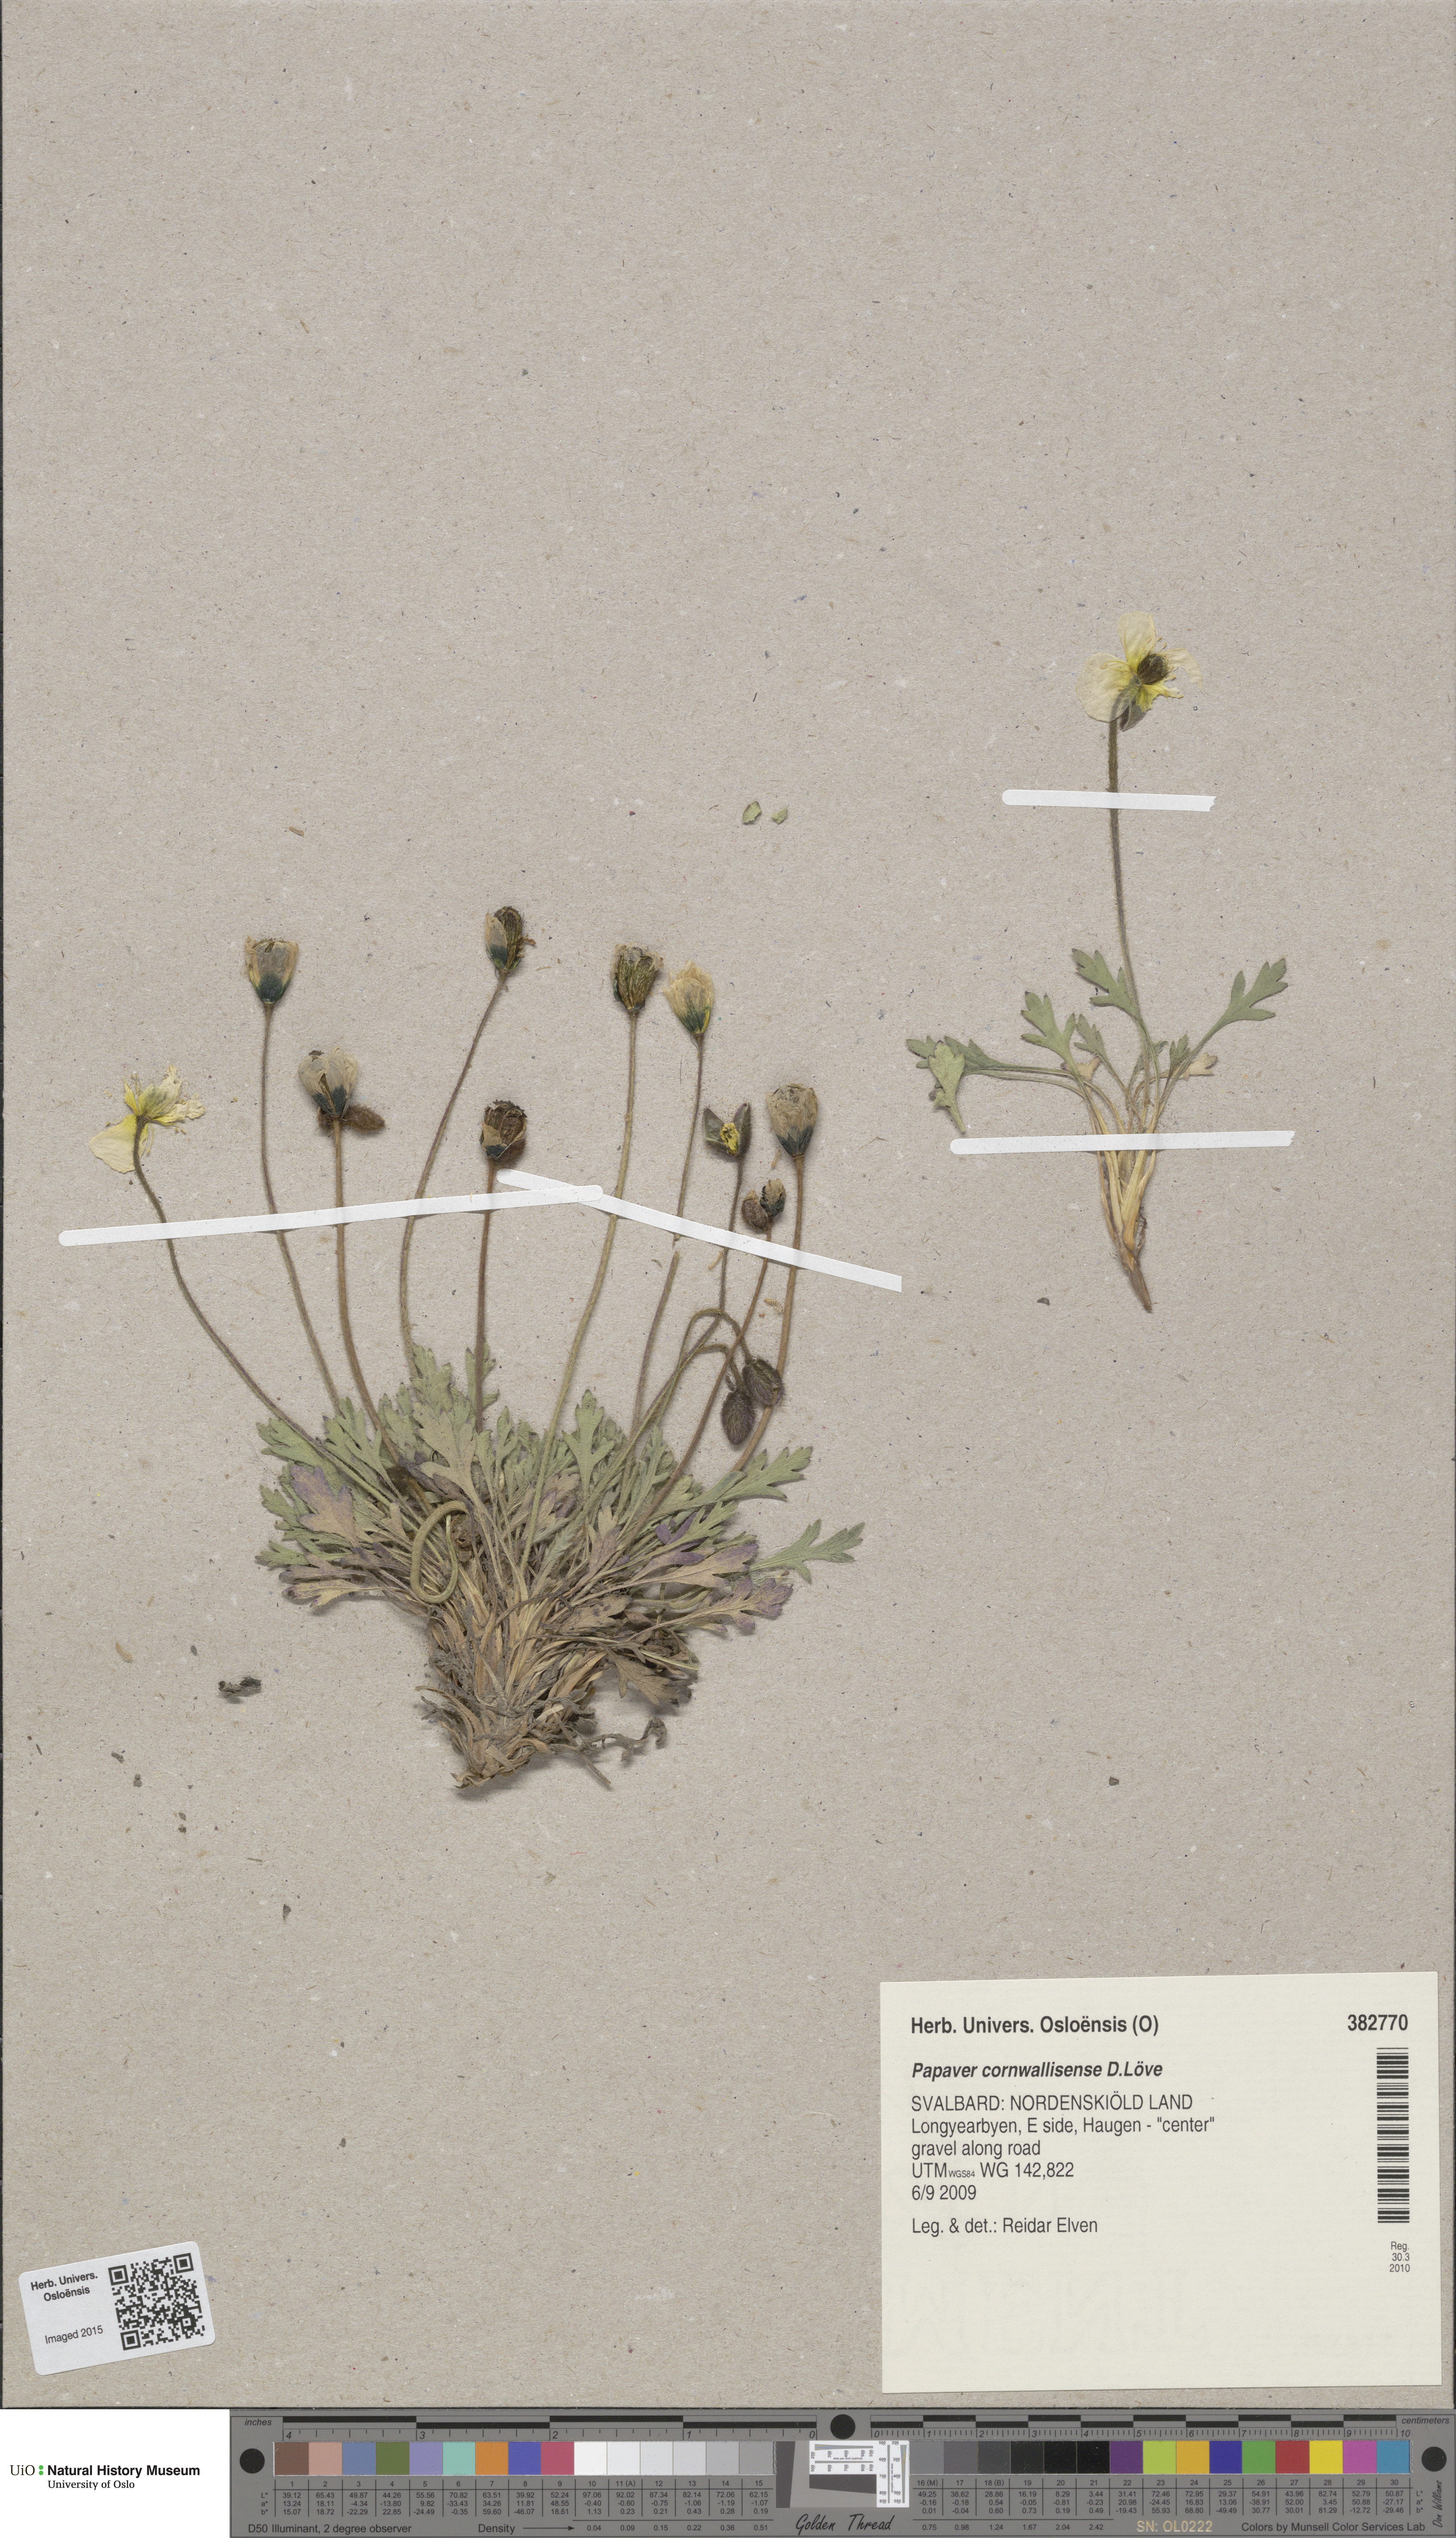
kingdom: Plantae
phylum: Tracheophyta
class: Magnoliopsida
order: Ranunculales
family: Papaveraceae
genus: Papaver
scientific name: Papaver radicatum
